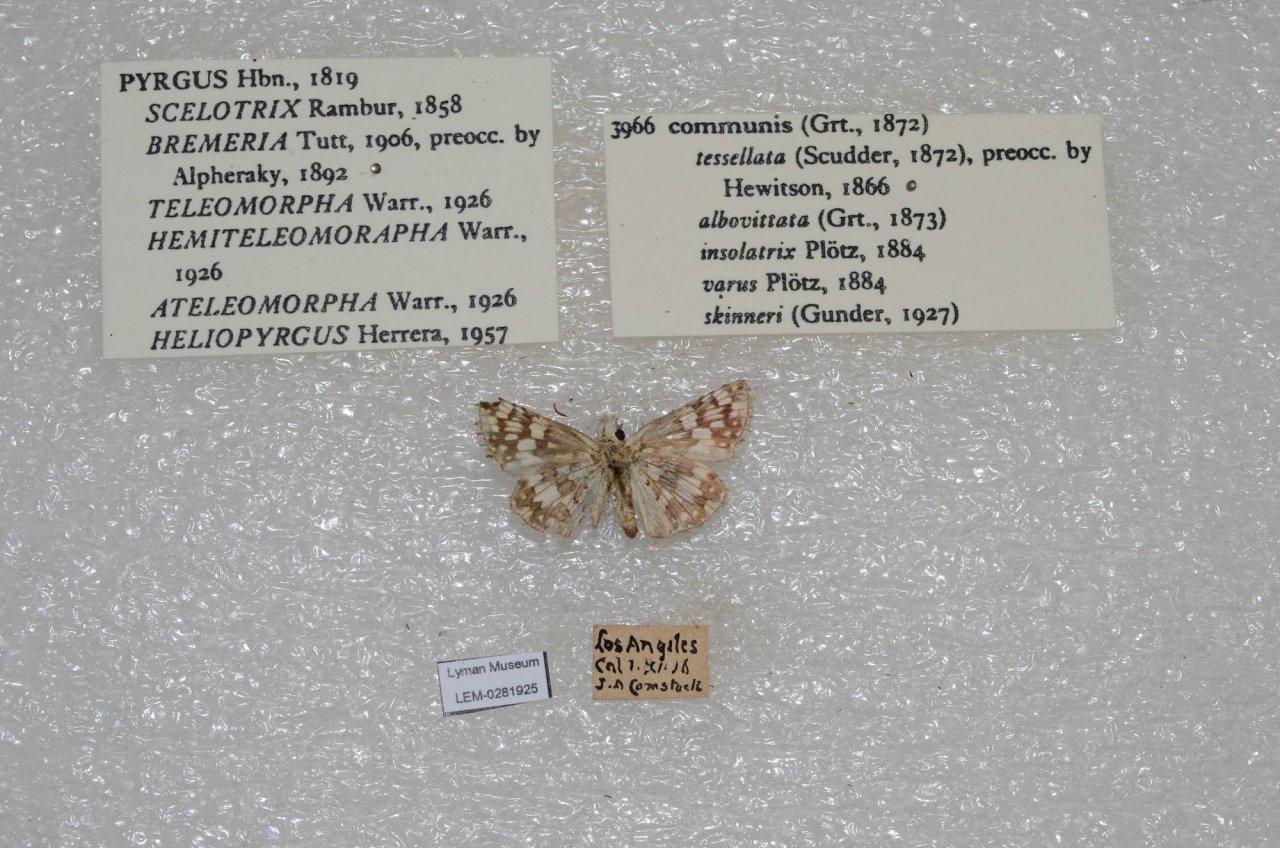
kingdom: Animalia
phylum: Arthropoda
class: Insecta
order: Lepidoptera
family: Hesperiidae
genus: Pyrgus
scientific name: Pyrgus communis
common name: Common Checkered-Skipper
